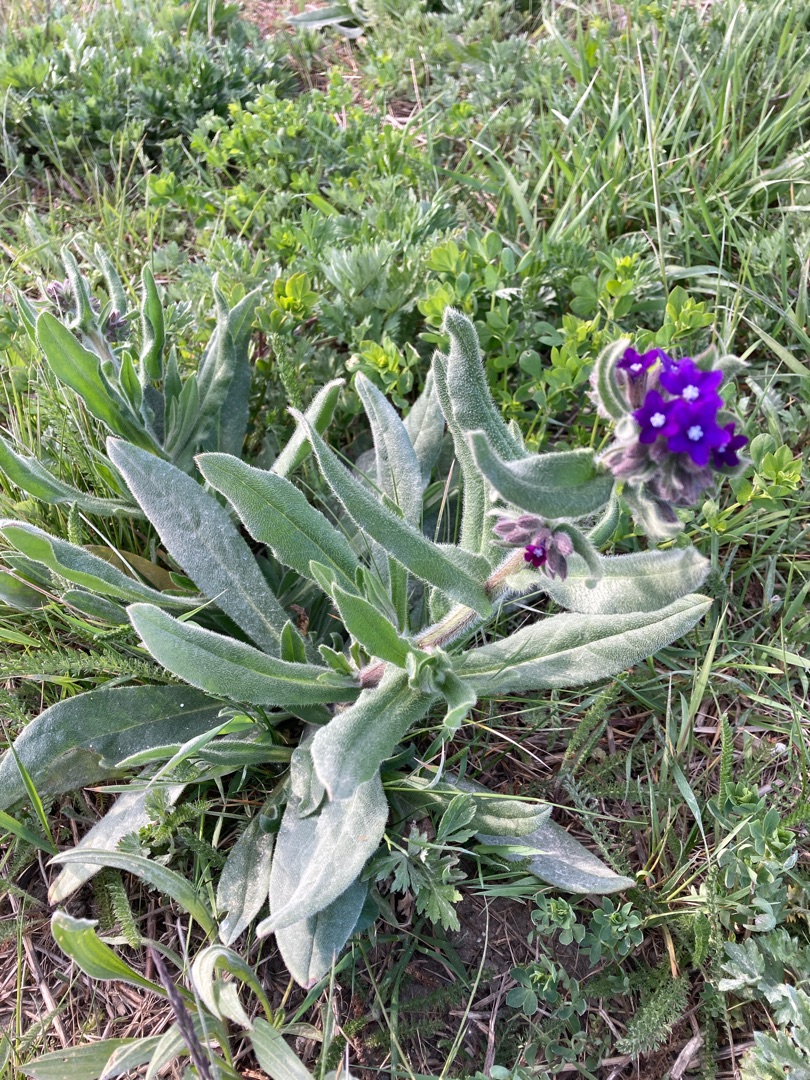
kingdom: Plantae
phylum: Tracheophyta
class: Magnoliopsida
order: Boraginales
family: Boraginaceae
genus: Anchusa
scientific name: Anchusa officinalis
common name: Læge-oksetunge
